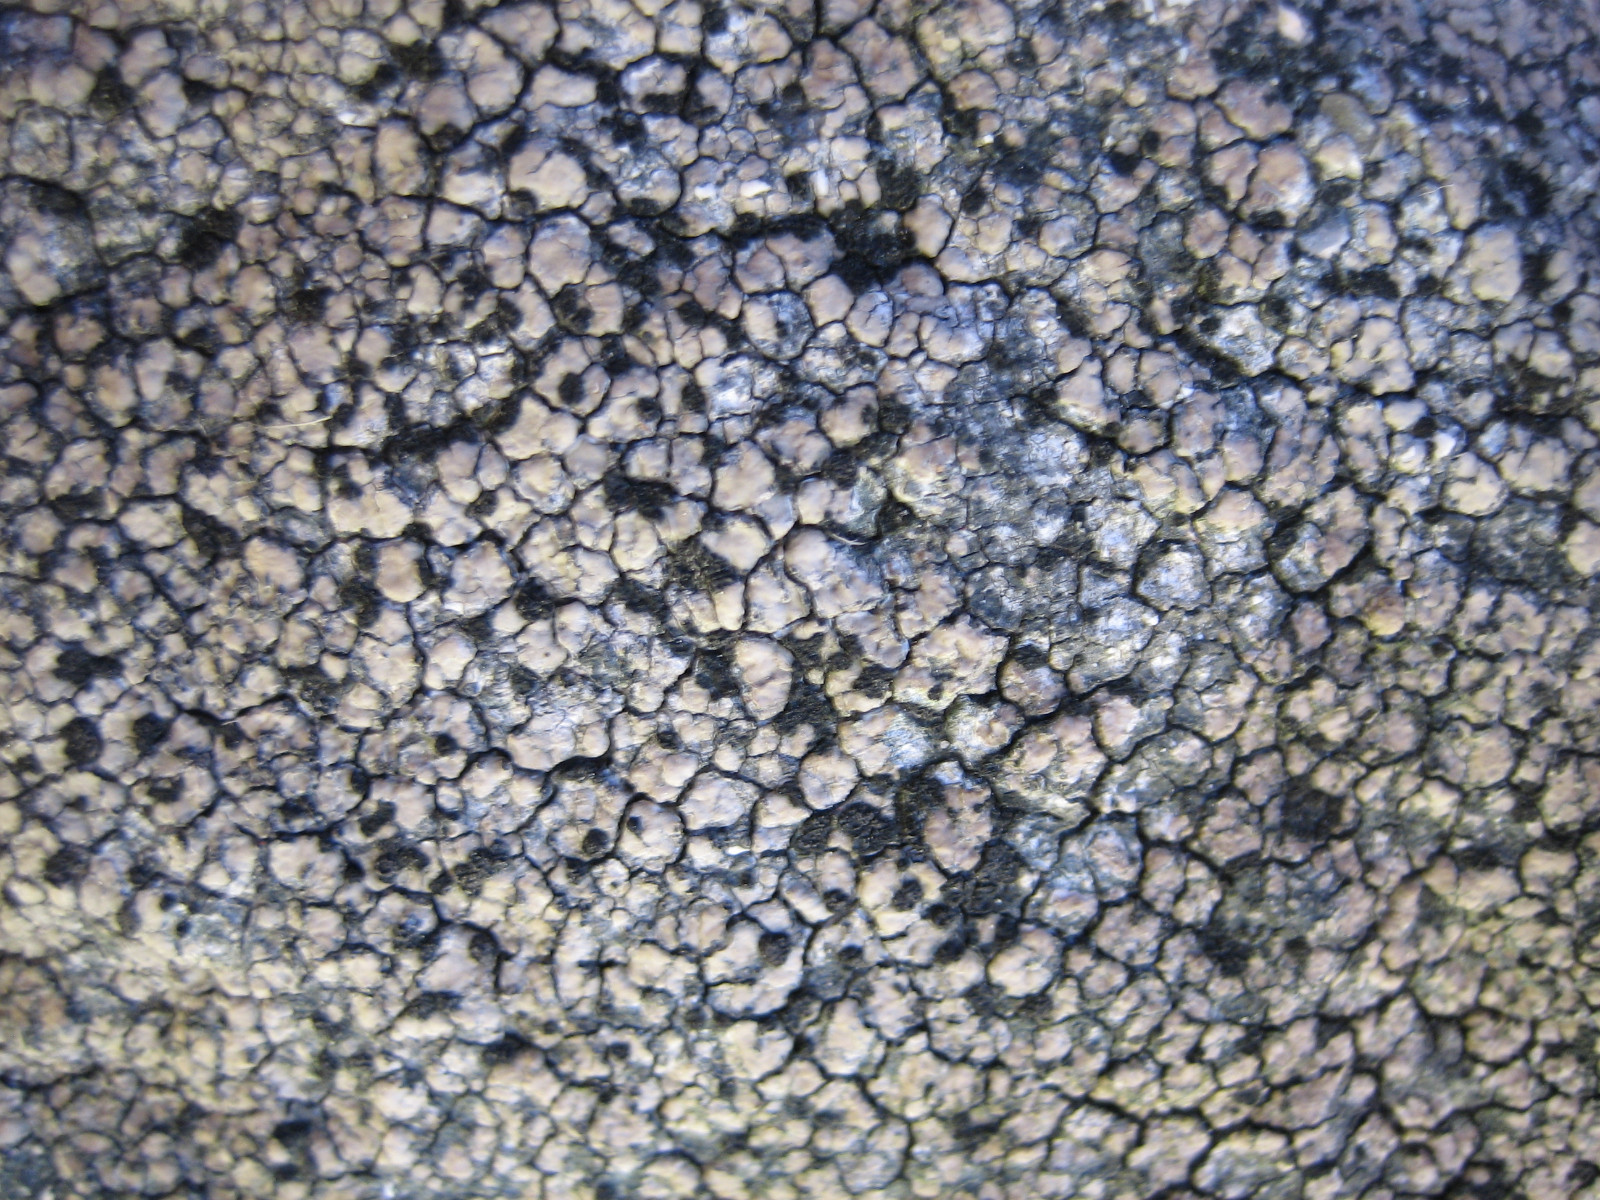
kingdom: Fungi
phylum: Ascomycota
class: Lecanoromycetes
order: Lecideales
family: Lecideaceae
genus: Lecidea
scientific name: Lecidea fuscoatra
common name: rudret skivelav
